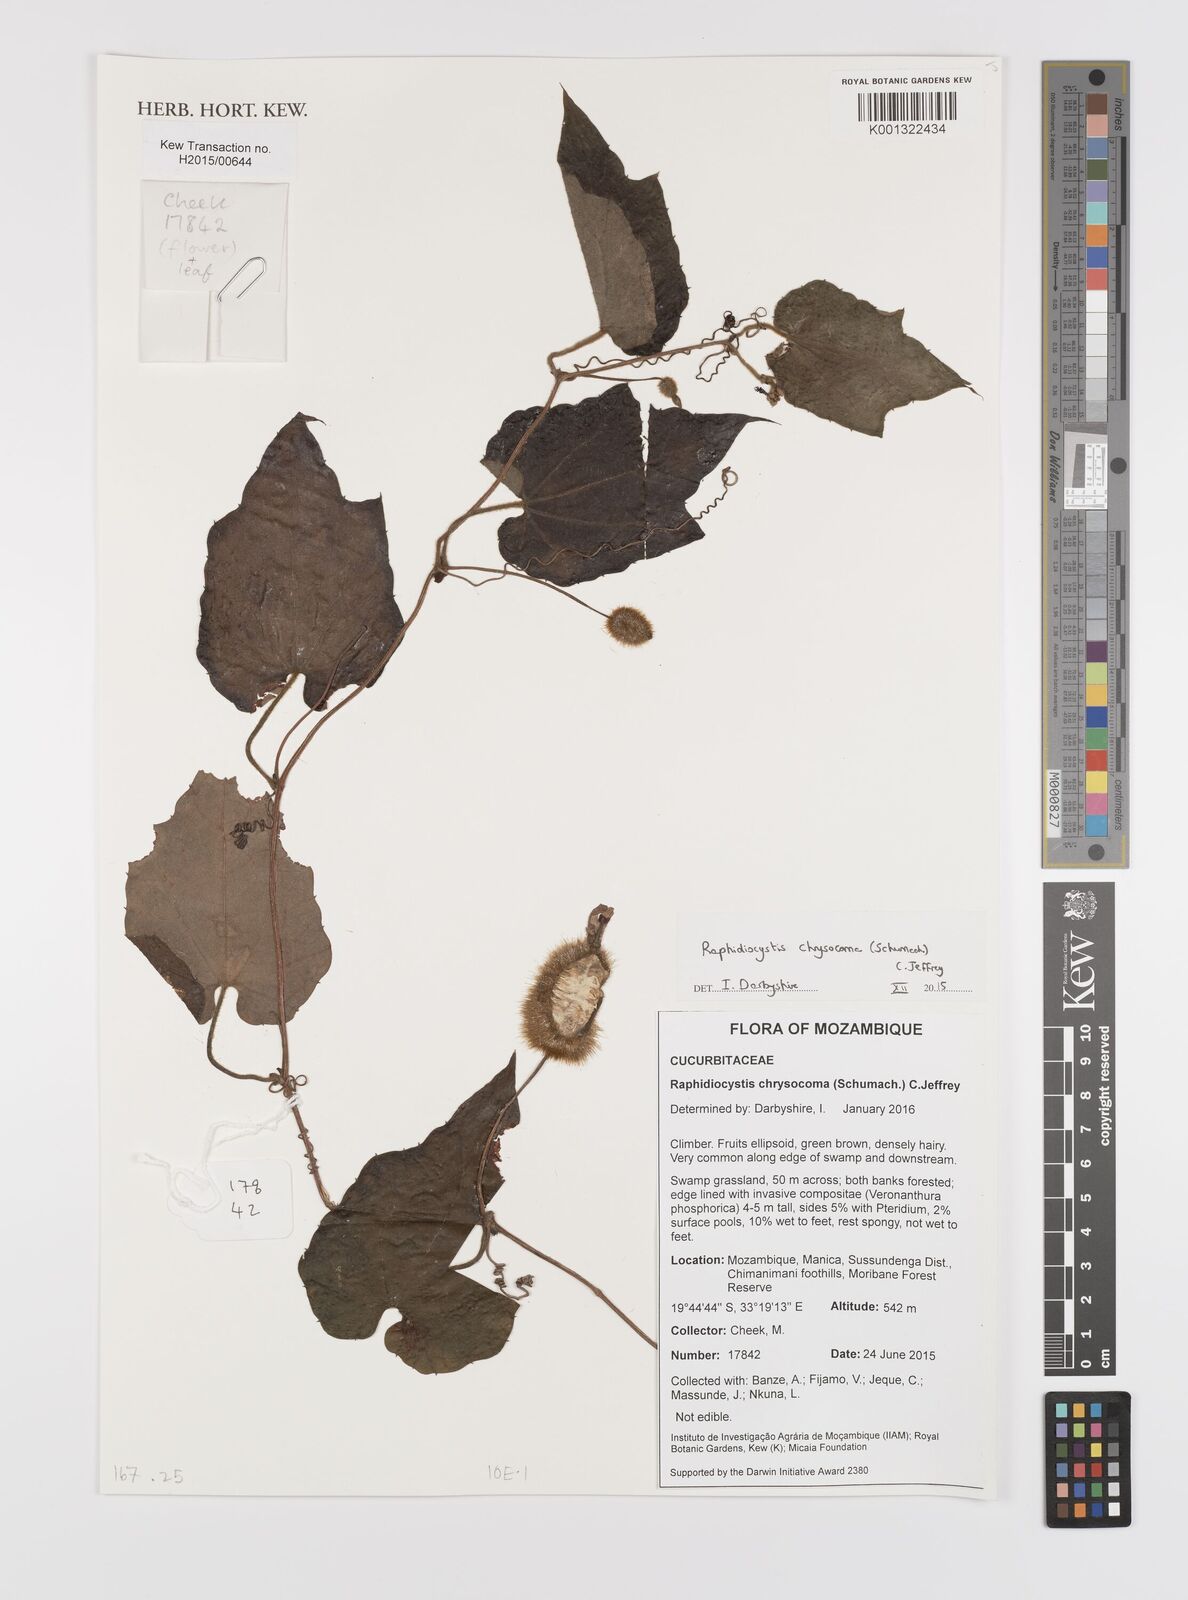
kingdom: Plantae
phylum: Tracheophyta
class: Magnoliopsida
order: Cucurbitales
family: Cucurbitaceae
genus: Raphidiocystis
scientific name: Raphidiocystis chrysocoma
